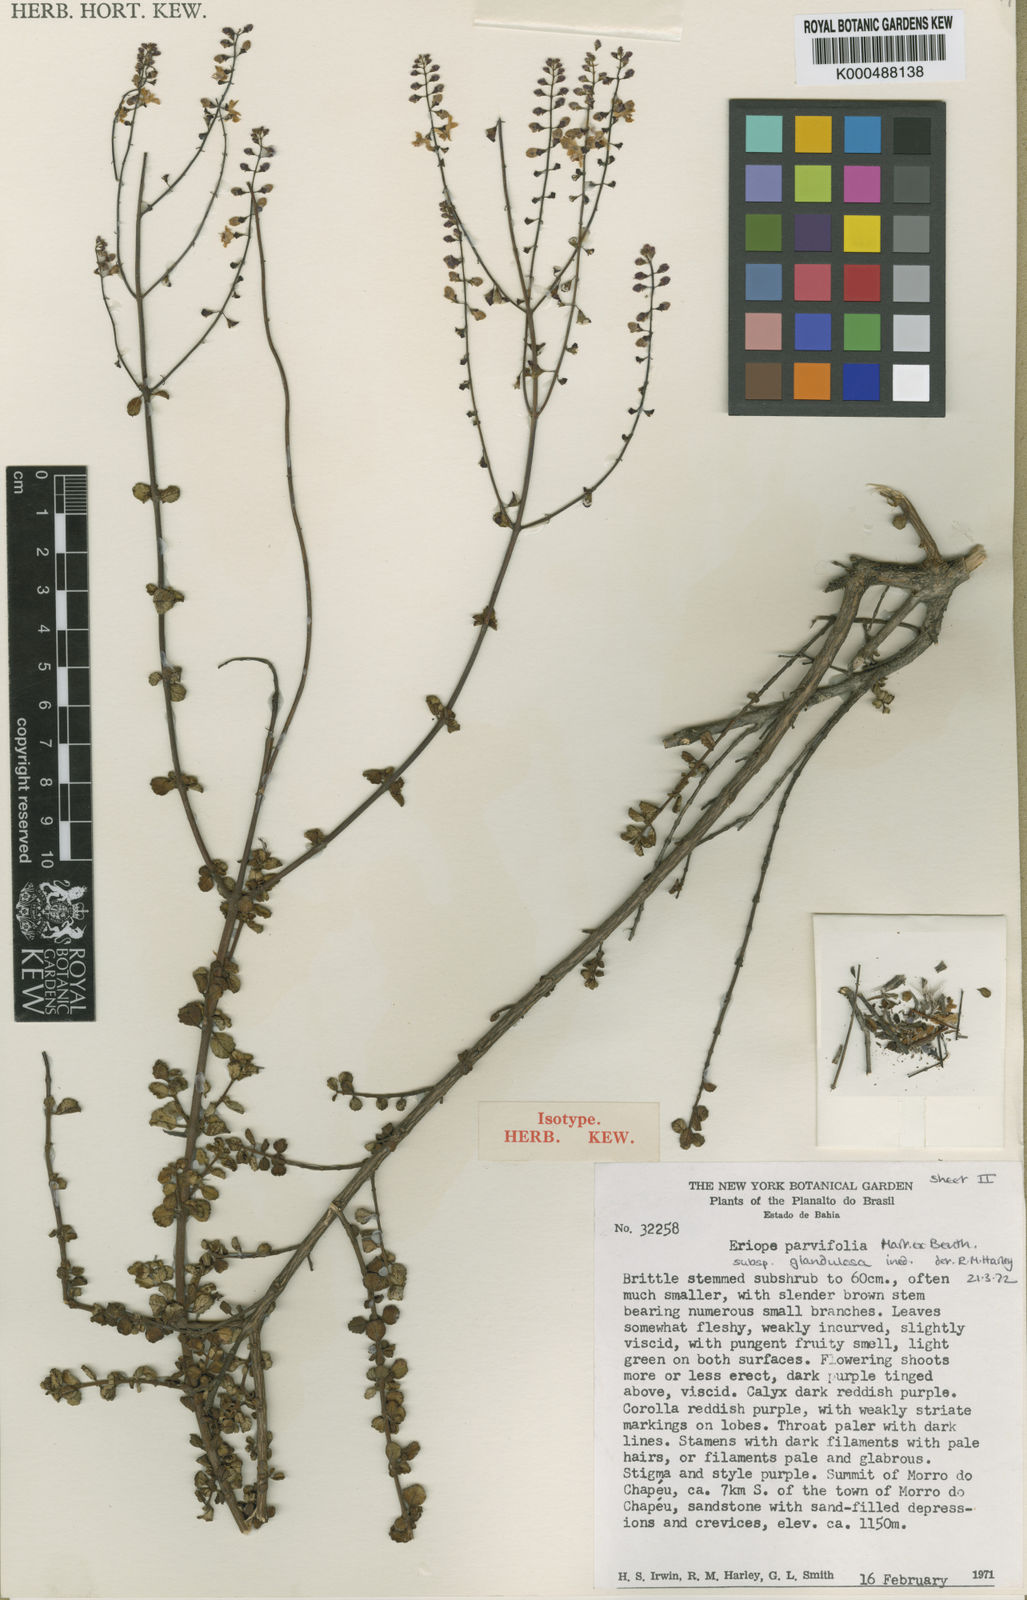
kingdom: Plantae
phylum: Tracheophyta
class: Magnoliopsida
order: Lamiales
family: Lamiaceae
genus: Eriope
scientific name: Eriope parvifolia
